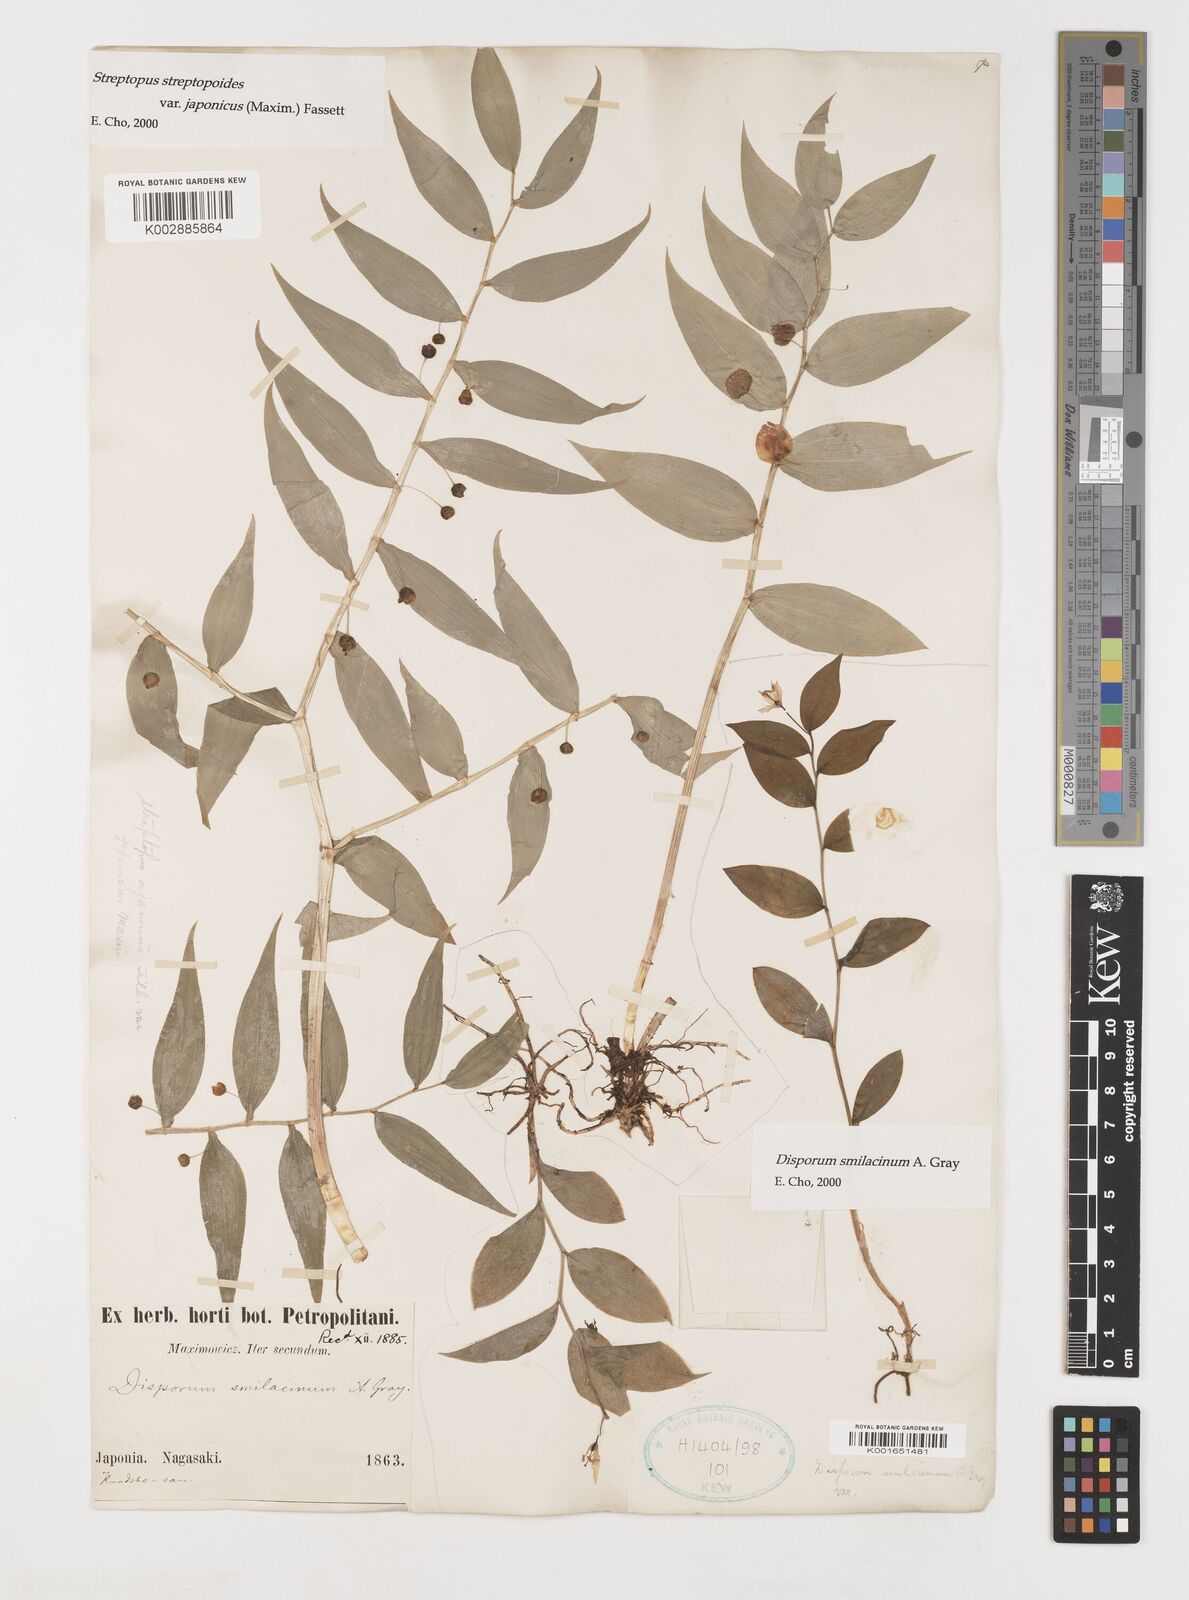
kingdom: Plantae
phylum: Tracheophyta
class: Liliopsida
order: Liliales
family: Liliaceae
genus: Streptopus
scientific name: Streptopus streptopoides
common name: Small twisted-stalk
